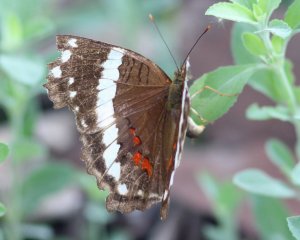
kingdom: Animalia
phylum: Arthropoda
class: Insecta
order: Lepidoptera
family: Nymphalidae
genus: Anartia
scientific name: Anartia fatima
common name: Banded Peacock
